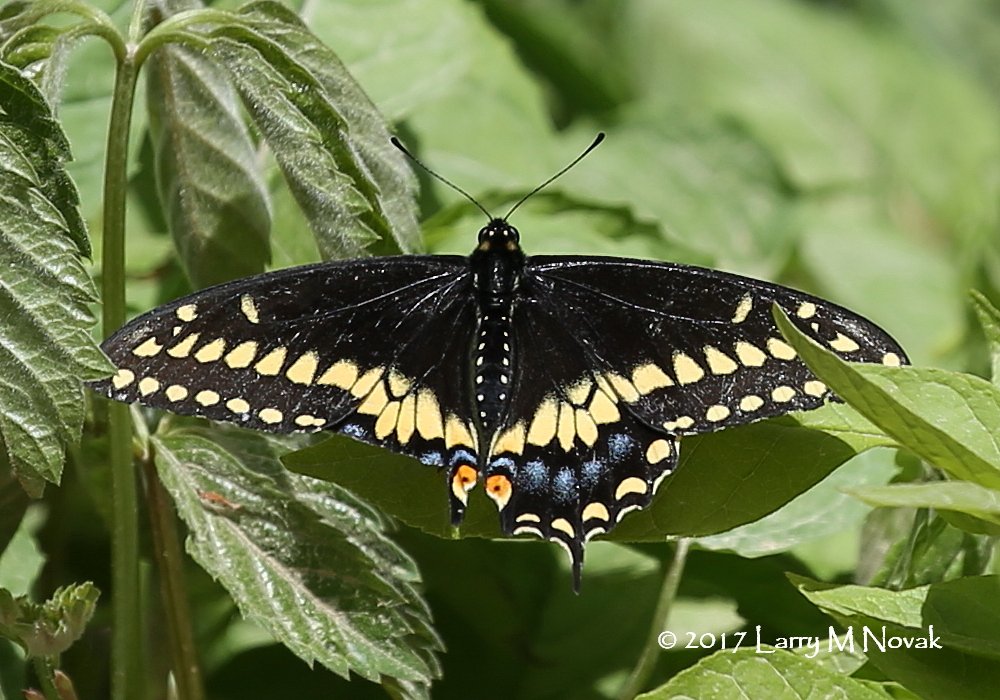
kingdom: Animalia
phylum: Arthropoda
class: Insecta
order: Lepidoptera
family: Papilionidae
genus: Papilio
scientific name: Papilio polyxenes
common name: Black Swallowtail
